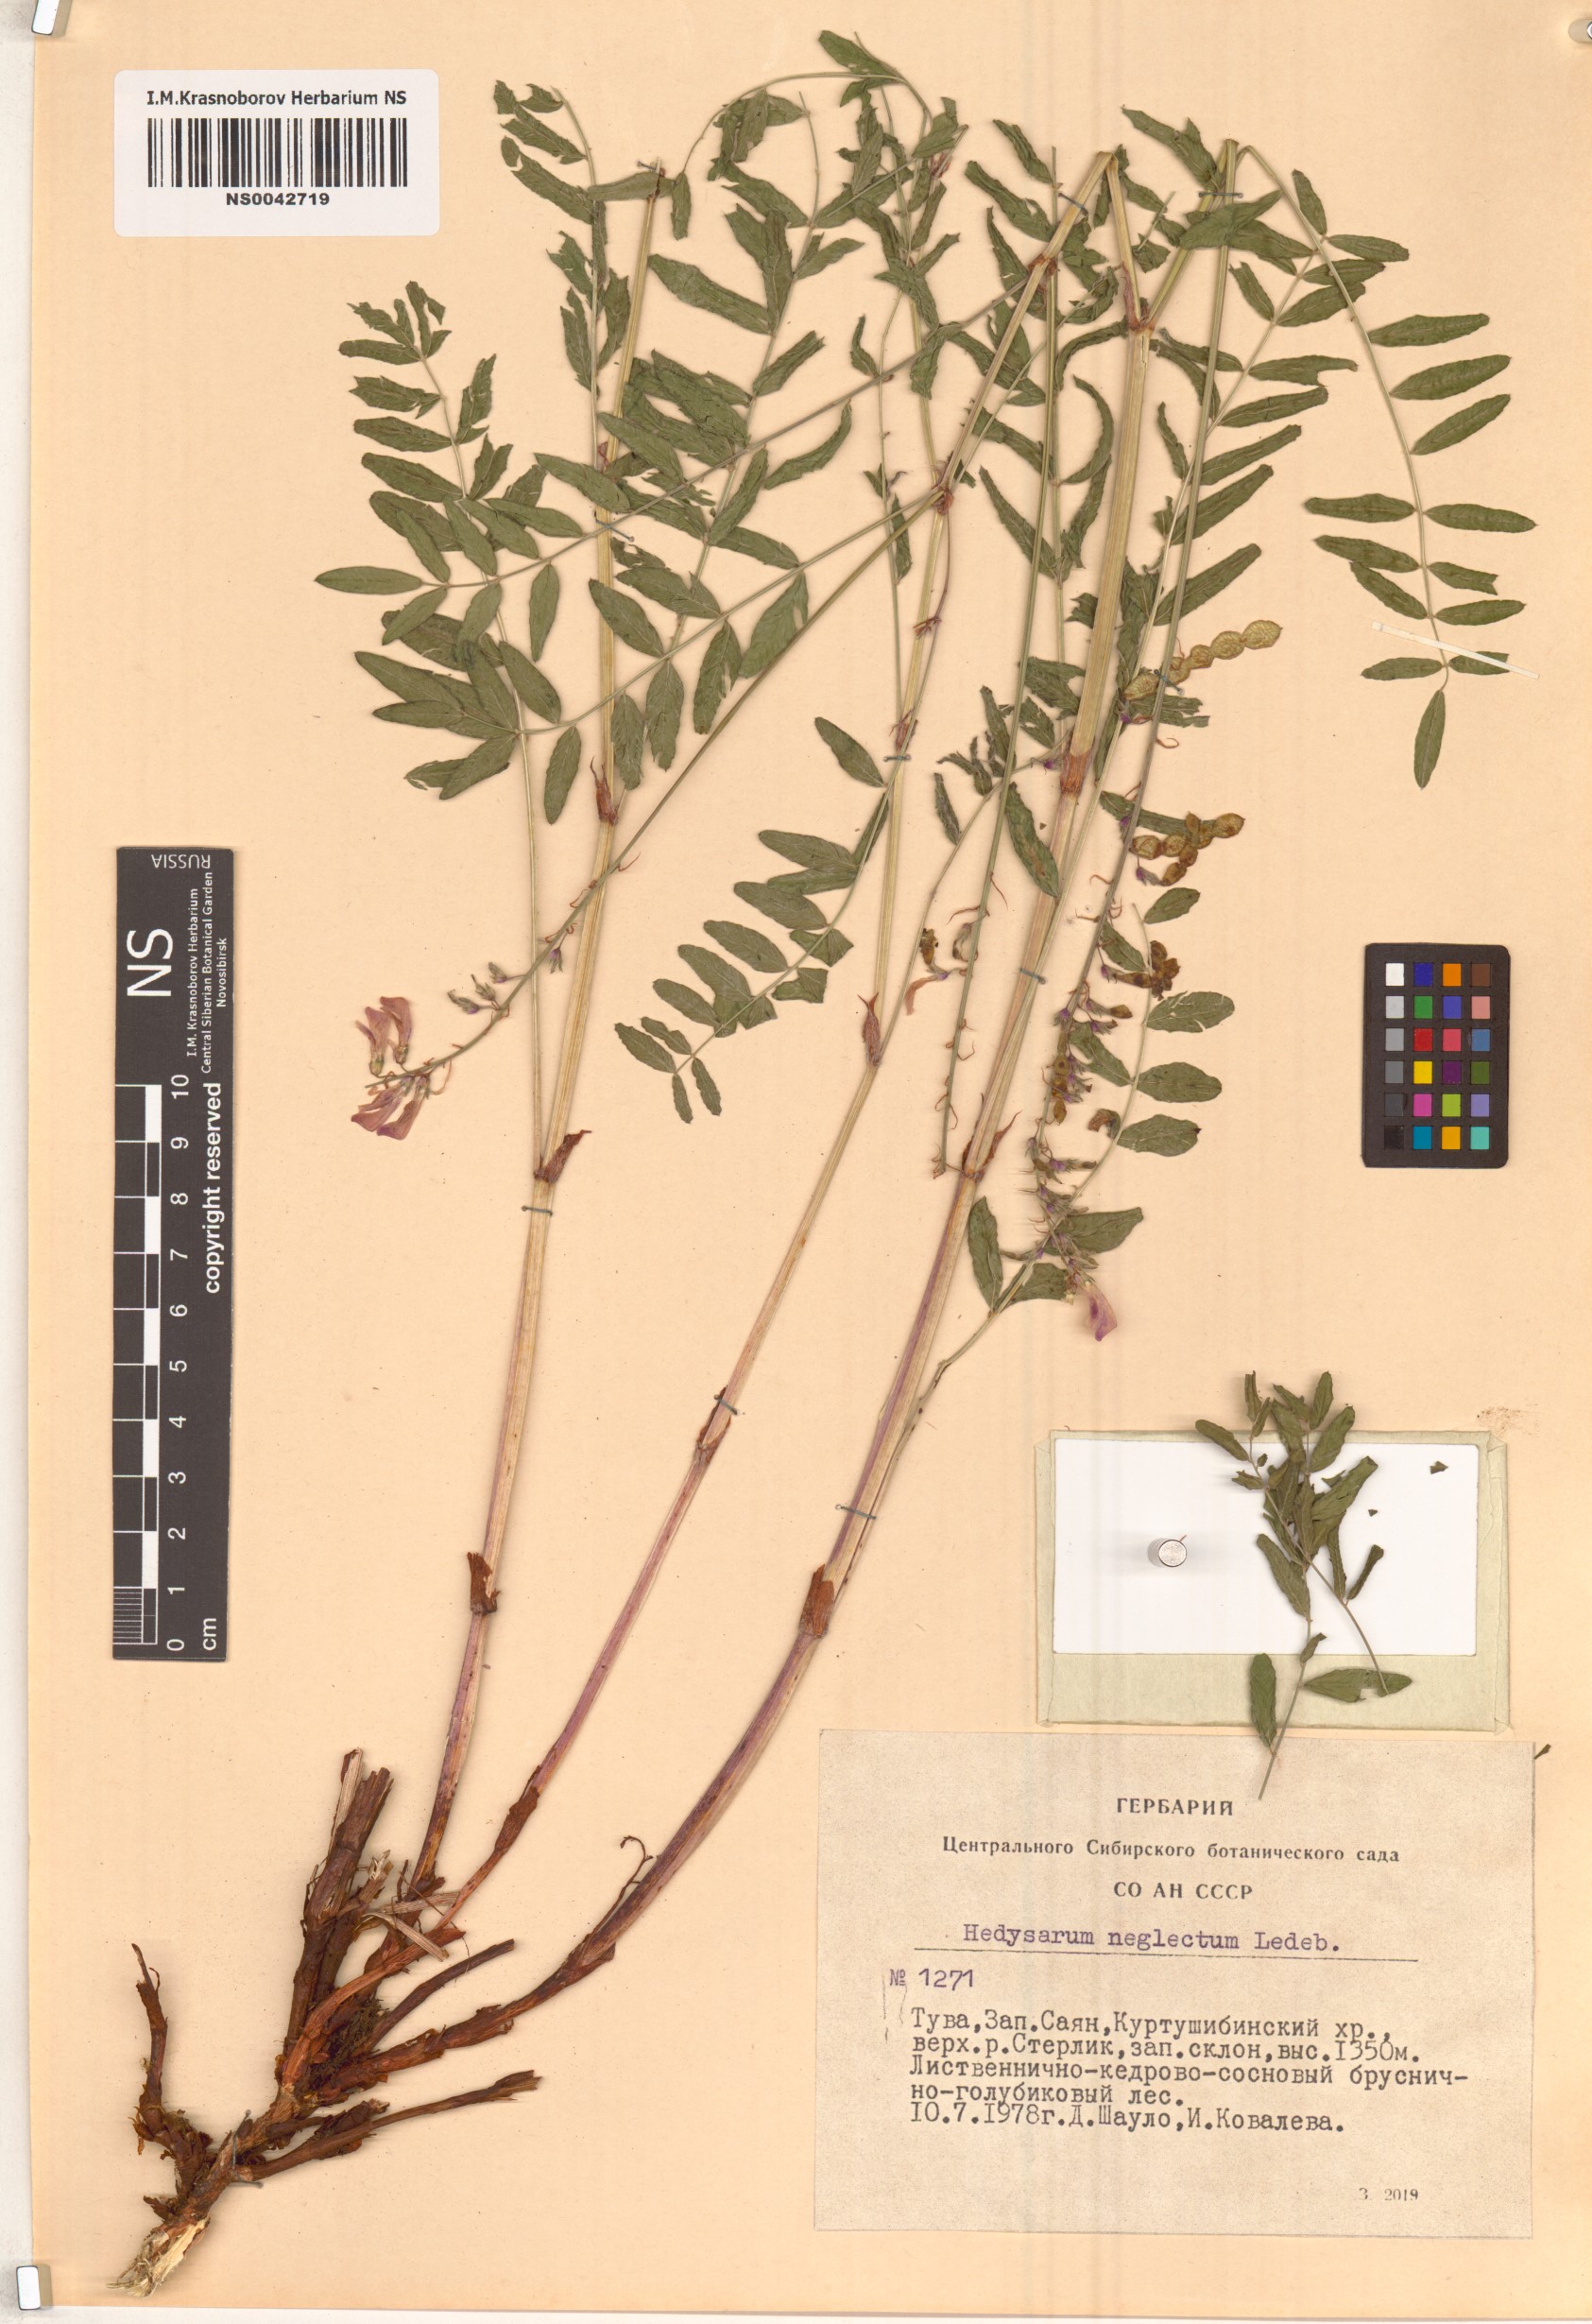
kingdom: Plantae
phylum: Tracheophyta
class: Magnoliopsida
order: Fabales
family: Fabaceae
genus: Hedysarum
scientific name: Hedysarum neglectum
